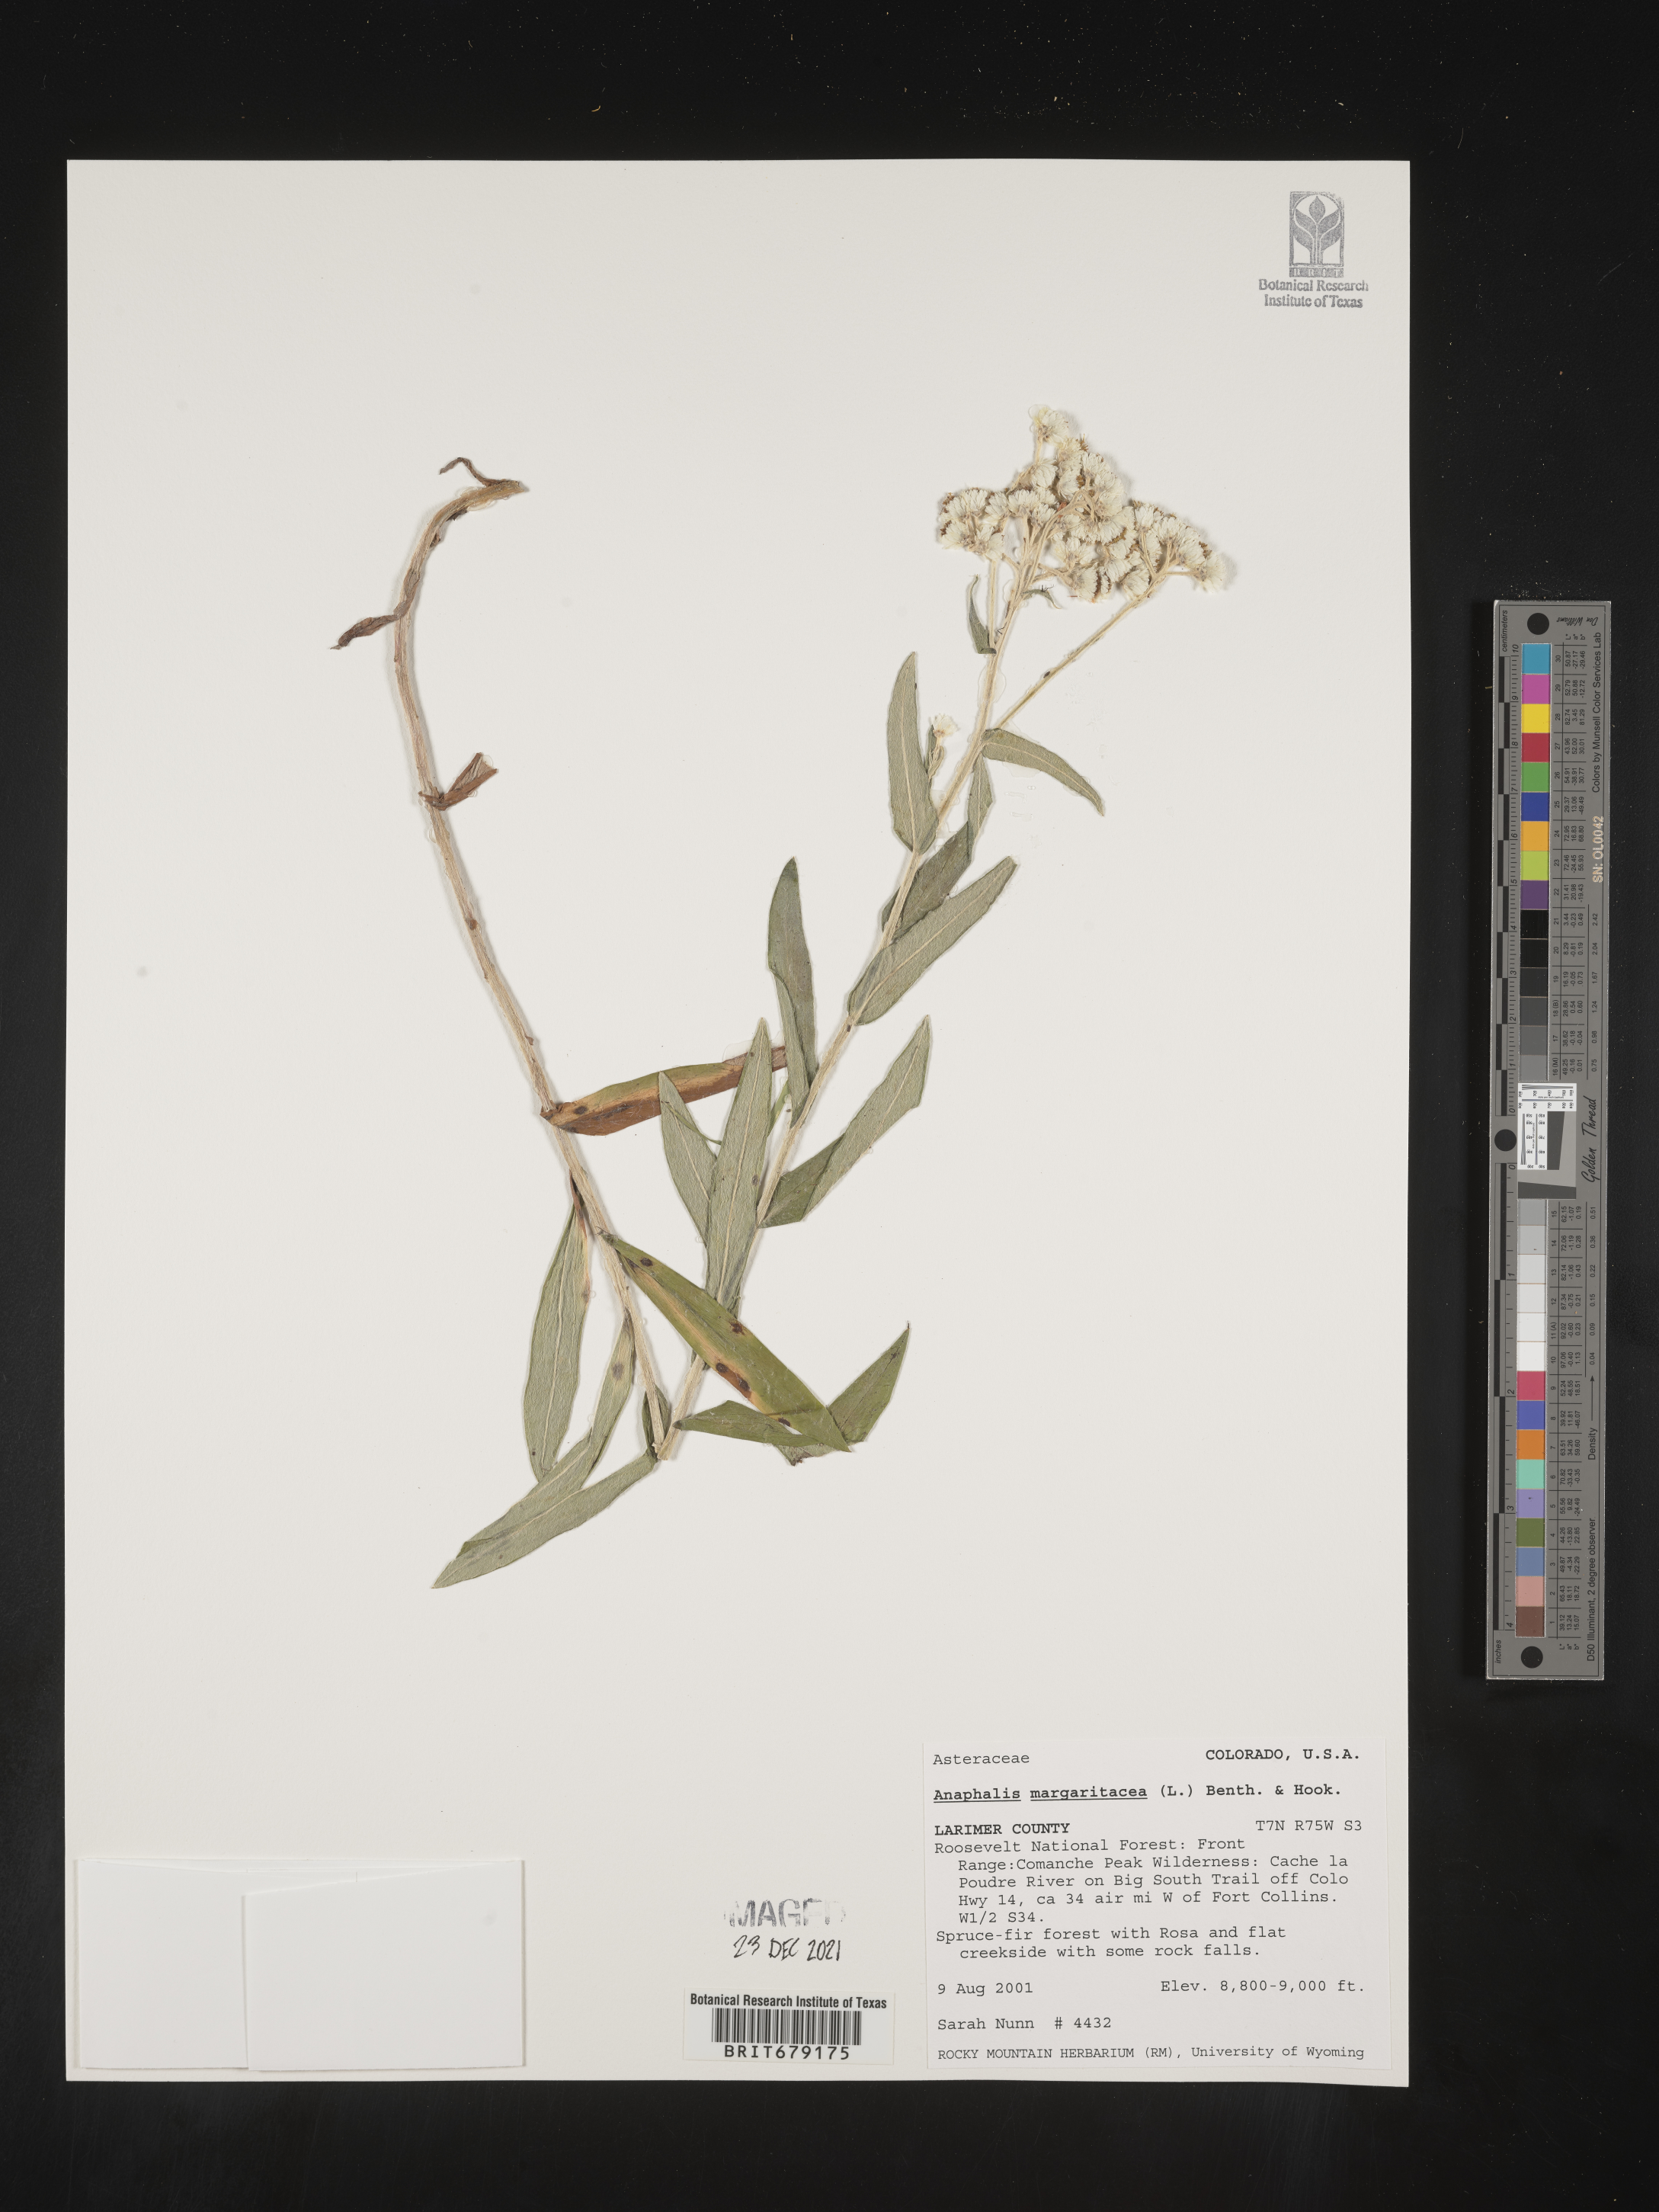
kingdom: Plantae
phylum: Tracheophyta
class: Magnoliopsida
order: Asterales
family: Asteraceae
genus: Anaphalis
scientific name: Anaphalis margaritacea
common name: Pearly everlasting
